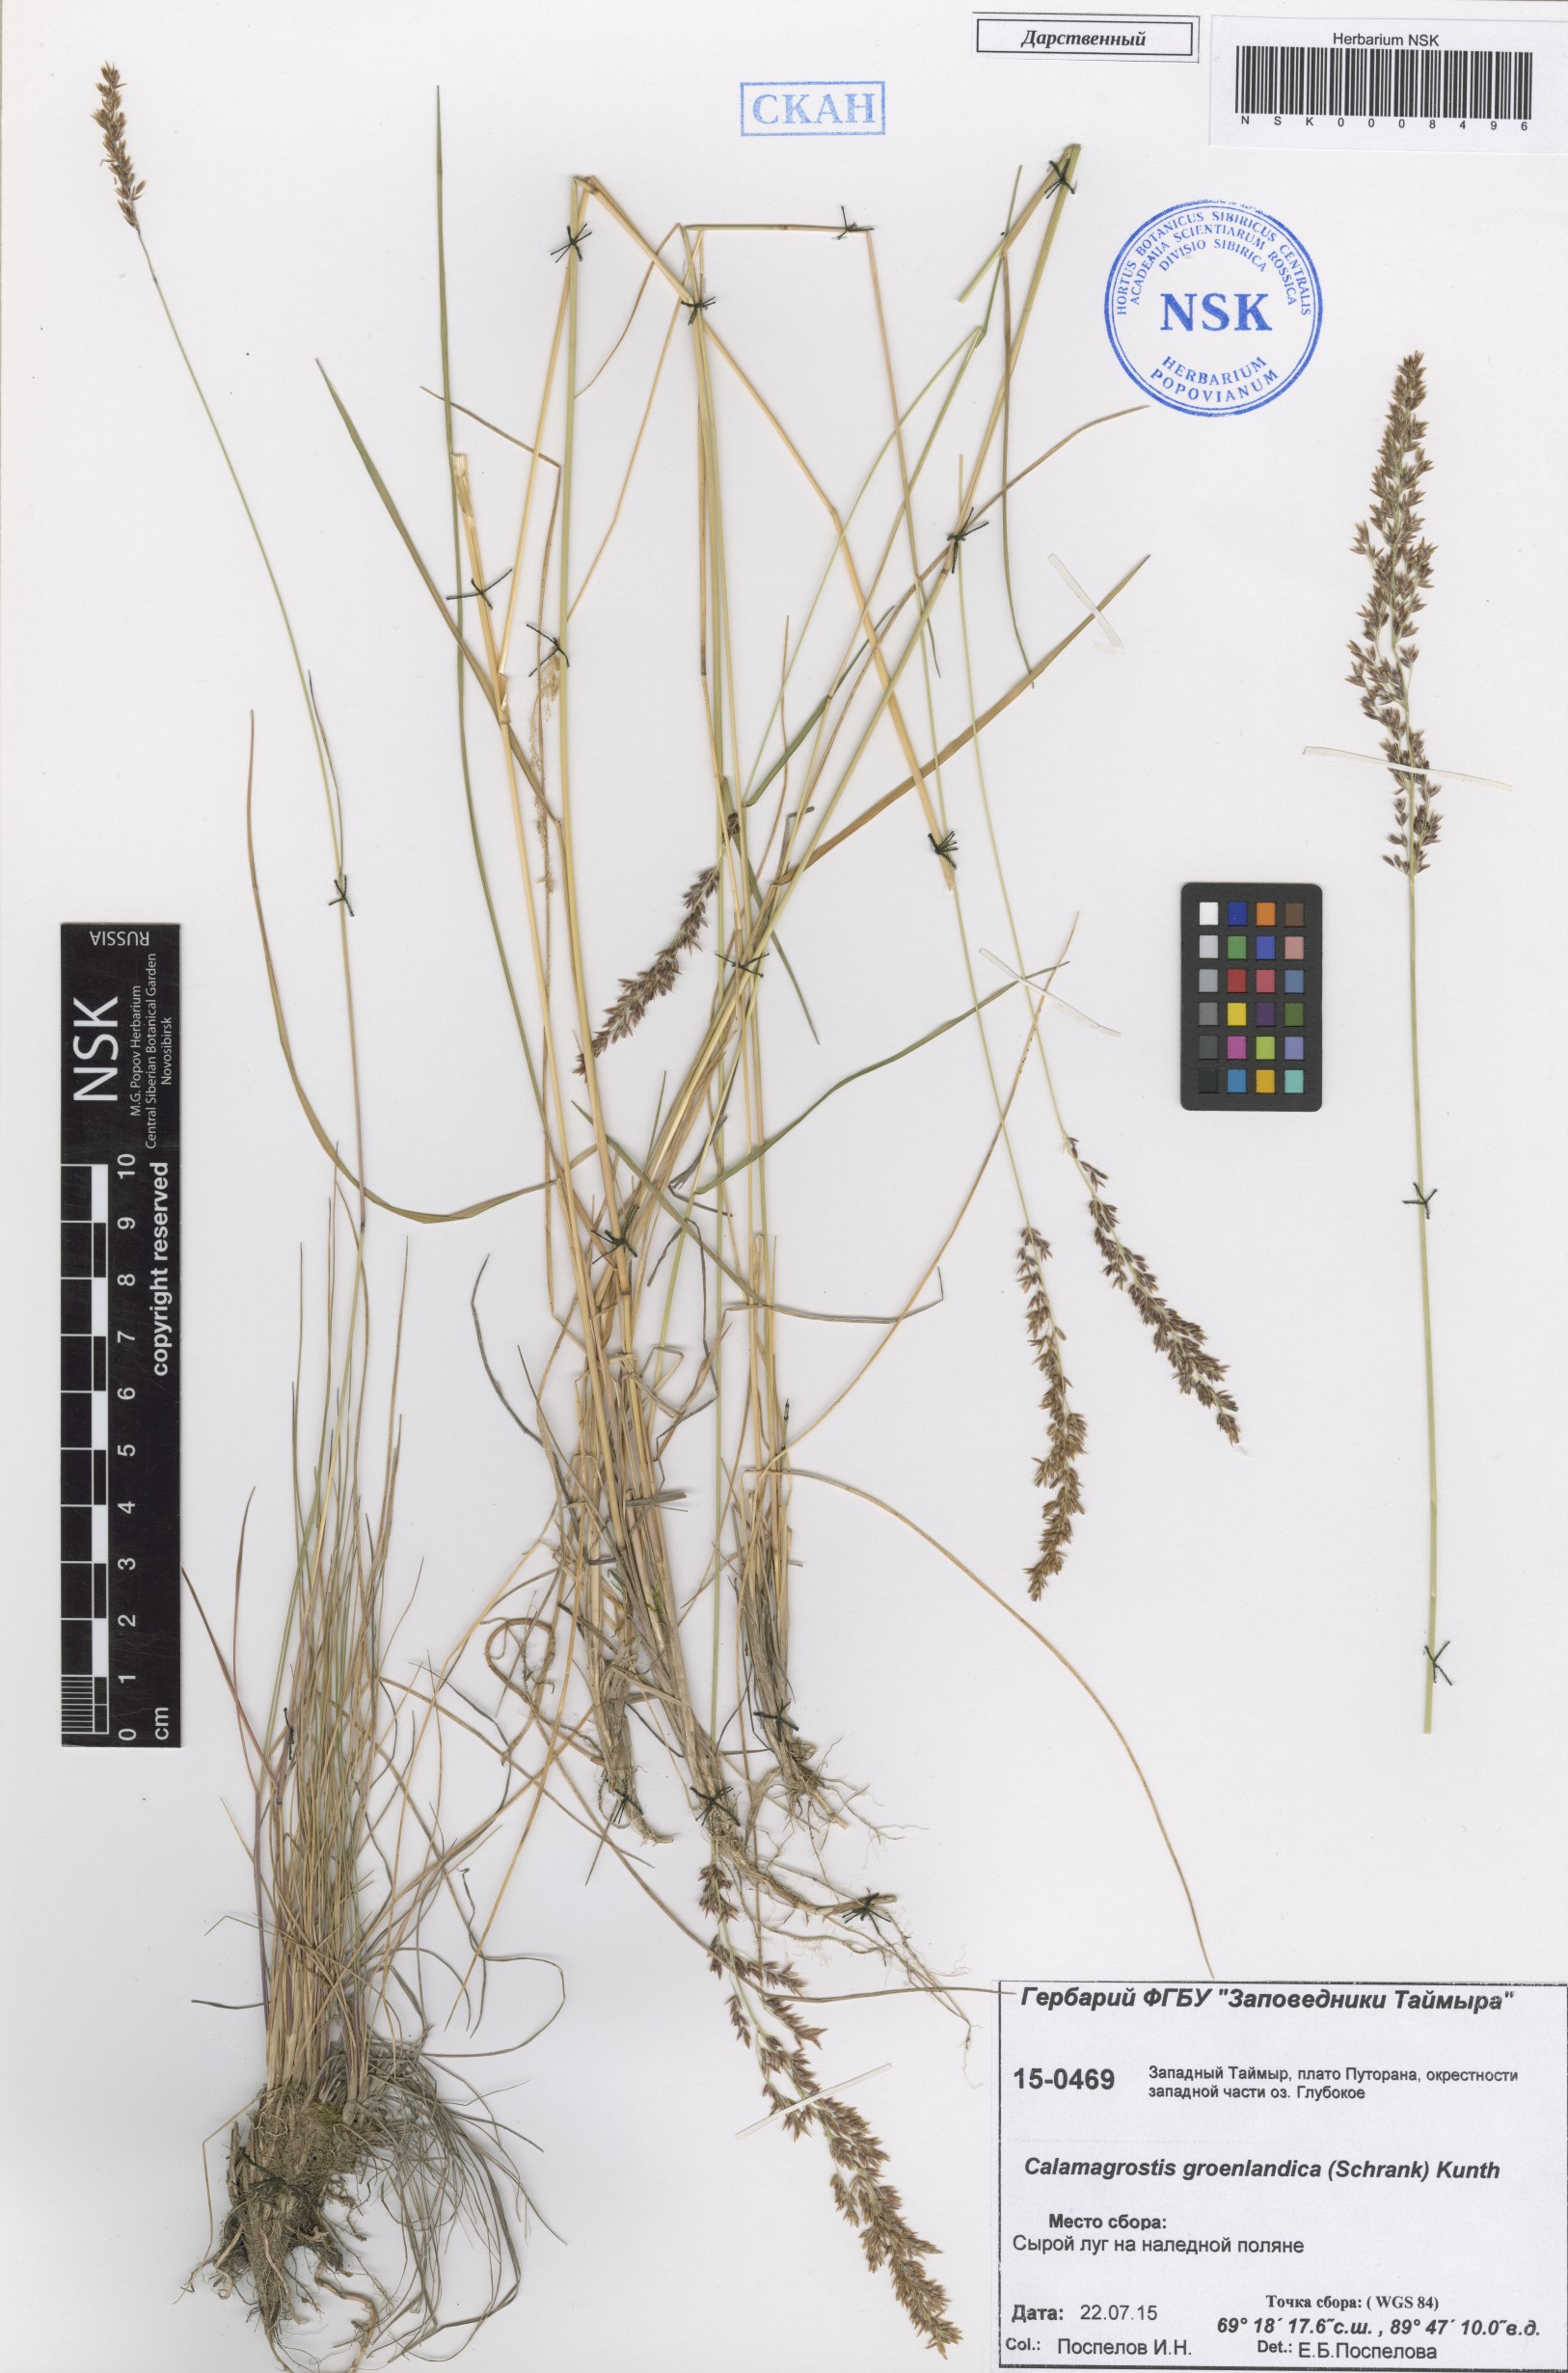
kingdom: Plantae
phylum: Tracheophyta
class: Liliopsida
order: Poales
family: Poaceae
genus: Calamagrostis
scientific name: Calamagrostis stricta
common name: Narrow small-reed
